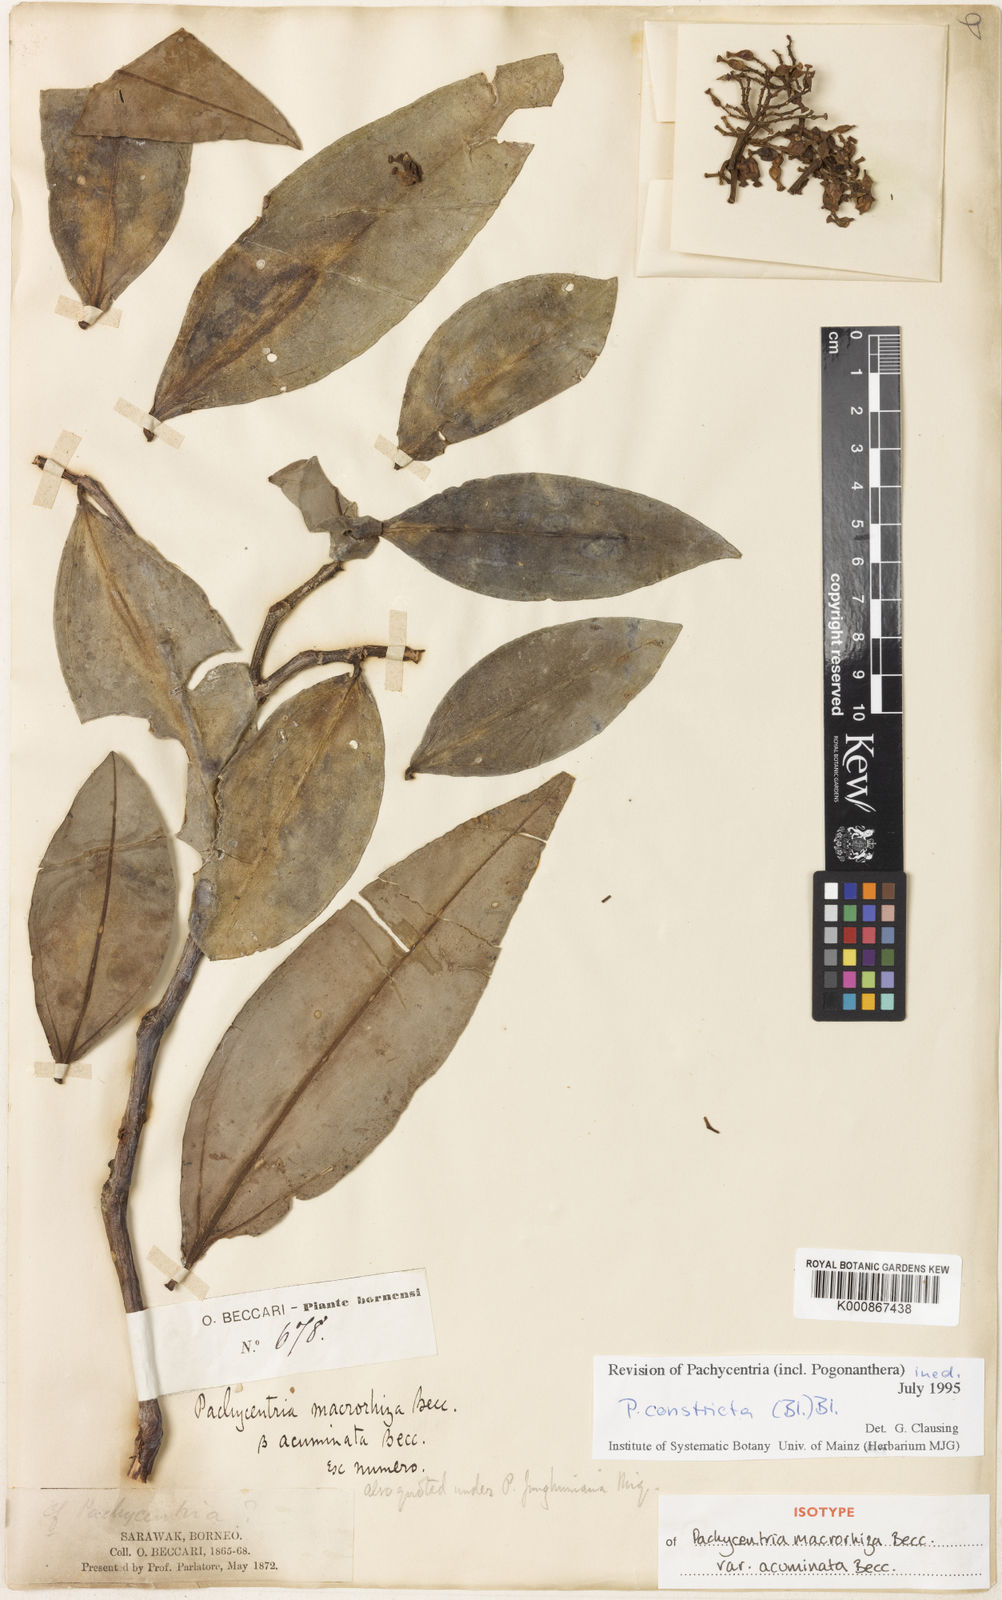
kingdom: Plantae
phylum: Tracheophyta
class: Magnoliopsida
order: Myrtales
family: Melastomataceae
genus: Pachycentria
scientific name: Pachycentria constricta
